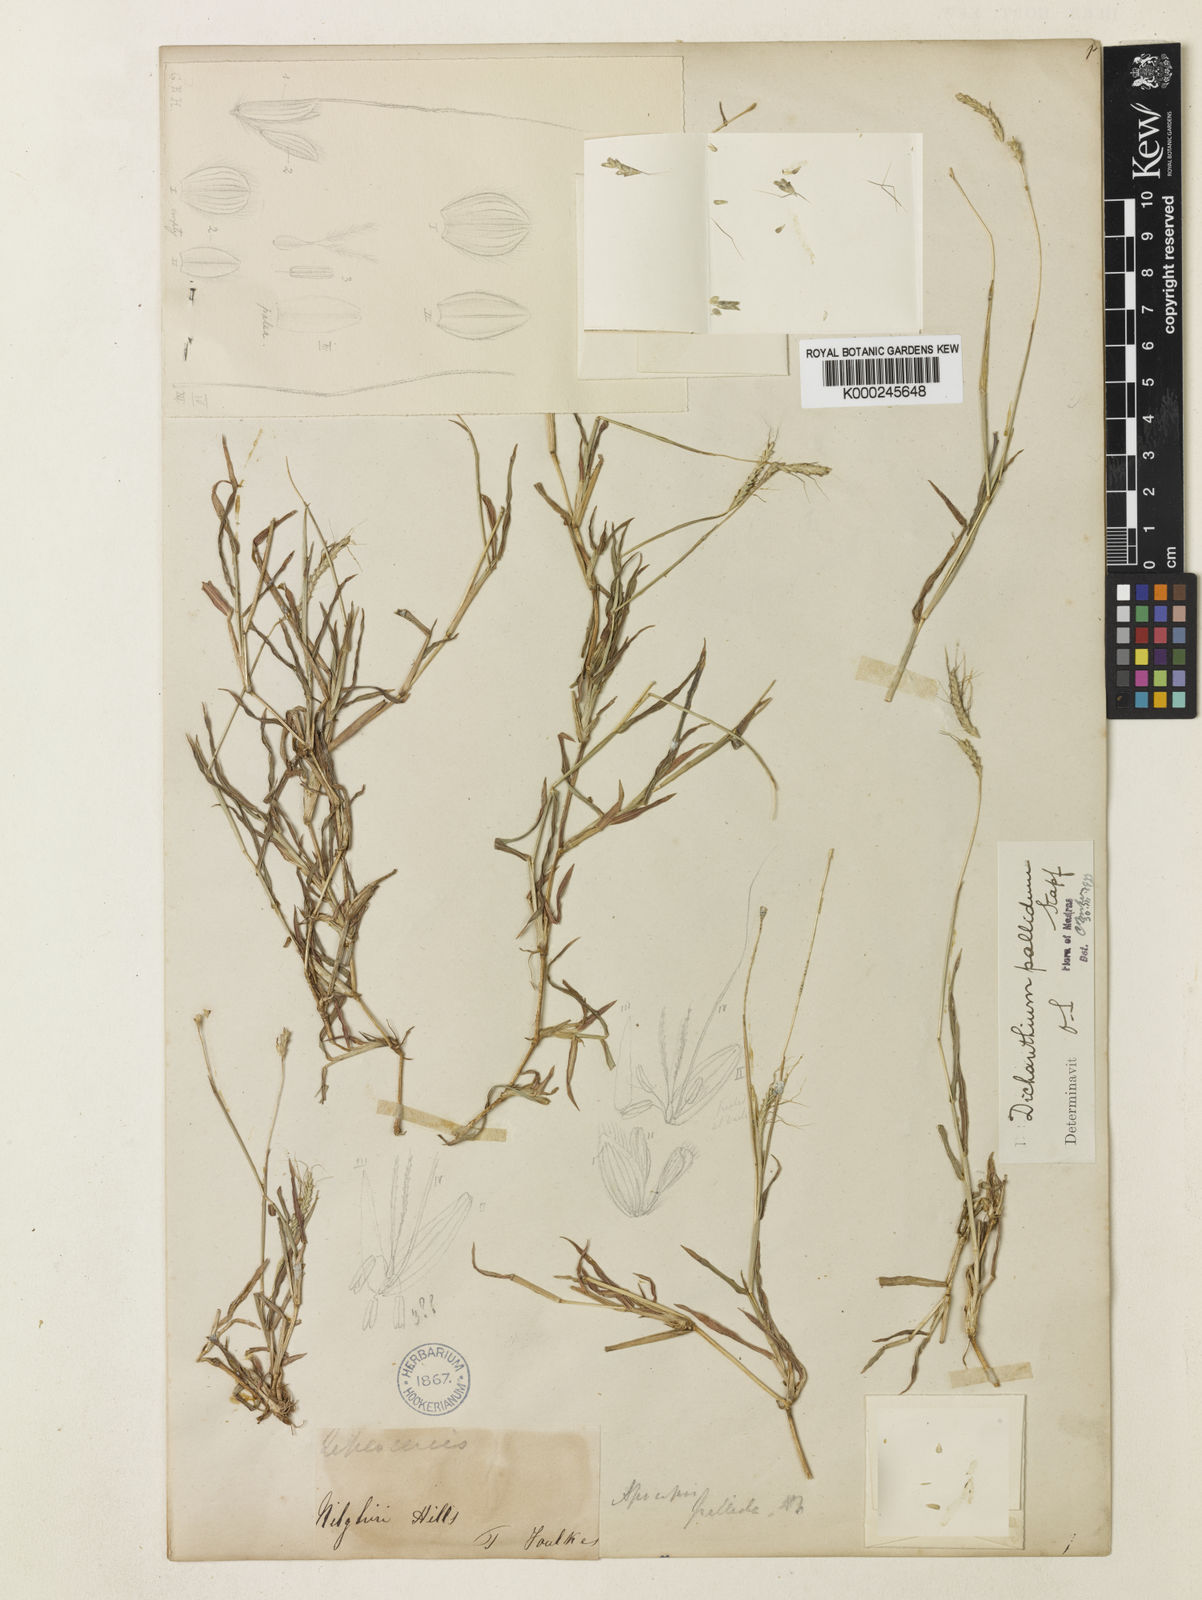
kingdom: Plantae
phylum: Tracheophyta
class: Liliopsida
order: Poales
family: Poaceae
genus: Dichanthium
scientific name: Dichanthium caricosum
